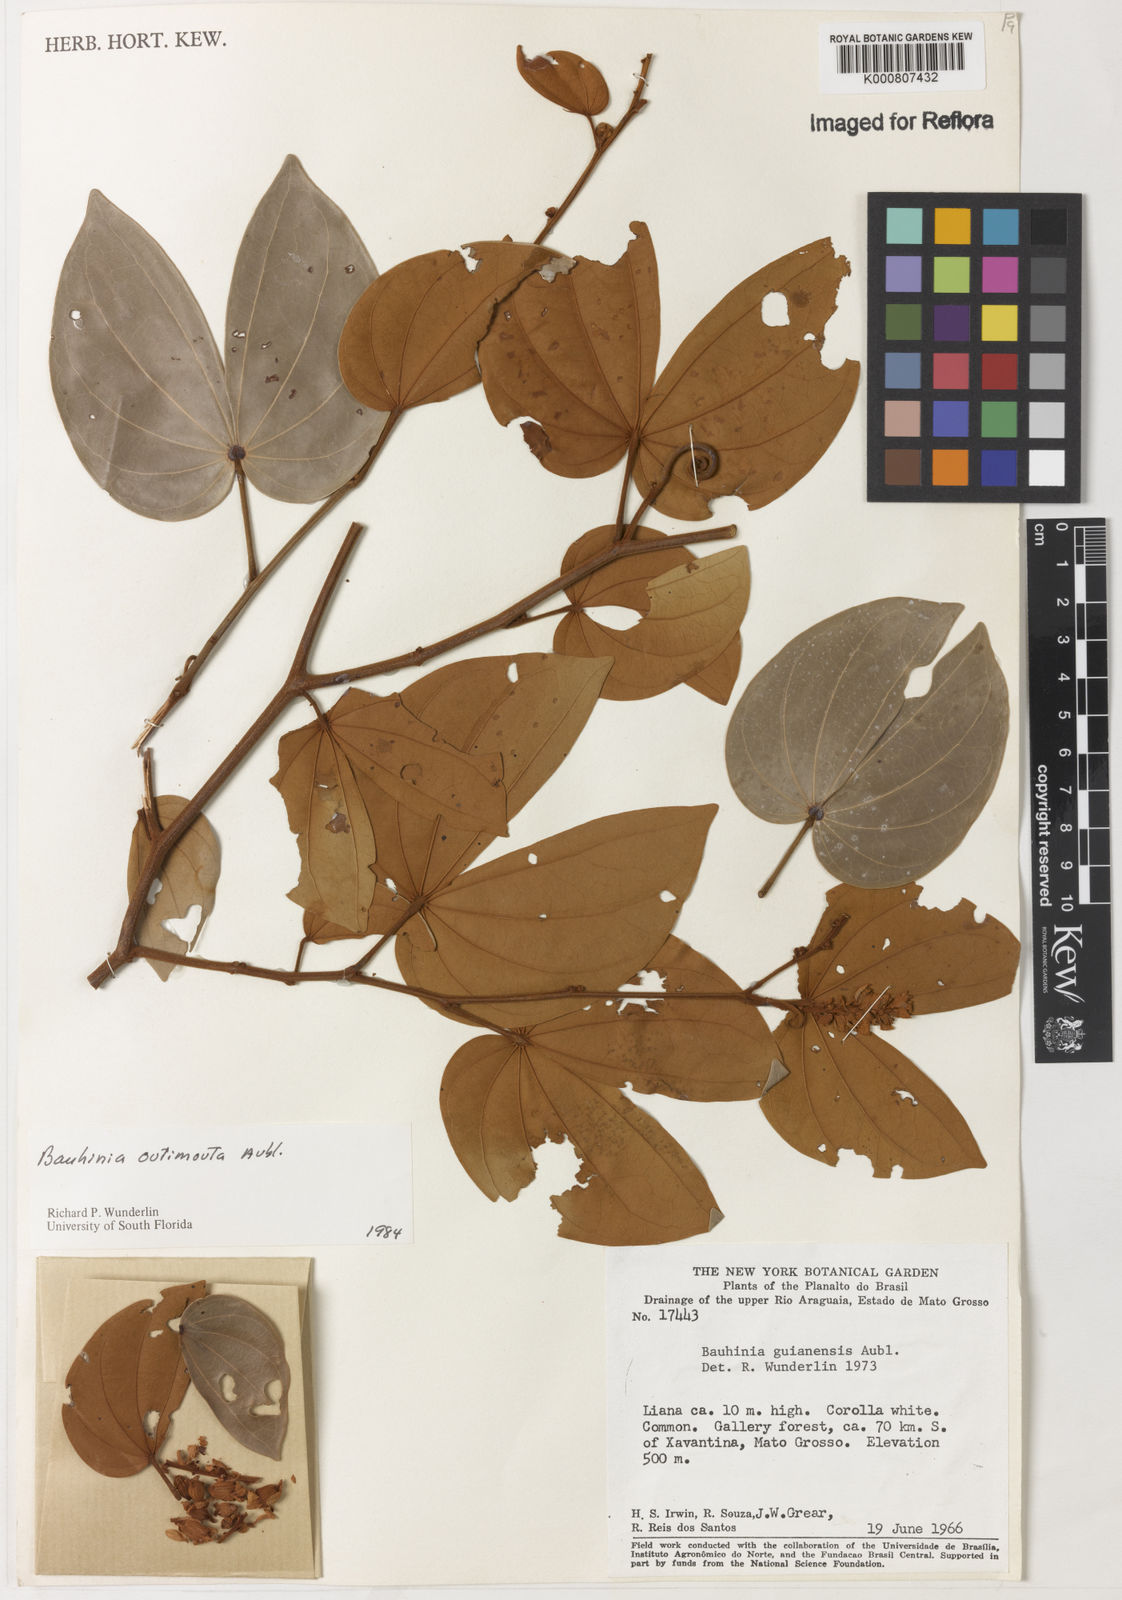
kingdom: Plantae
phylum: Tracheophyta
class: Magnoliopsida
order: Fabales
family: Fabaceae
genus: Schnella
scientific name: Schnella outimouta
